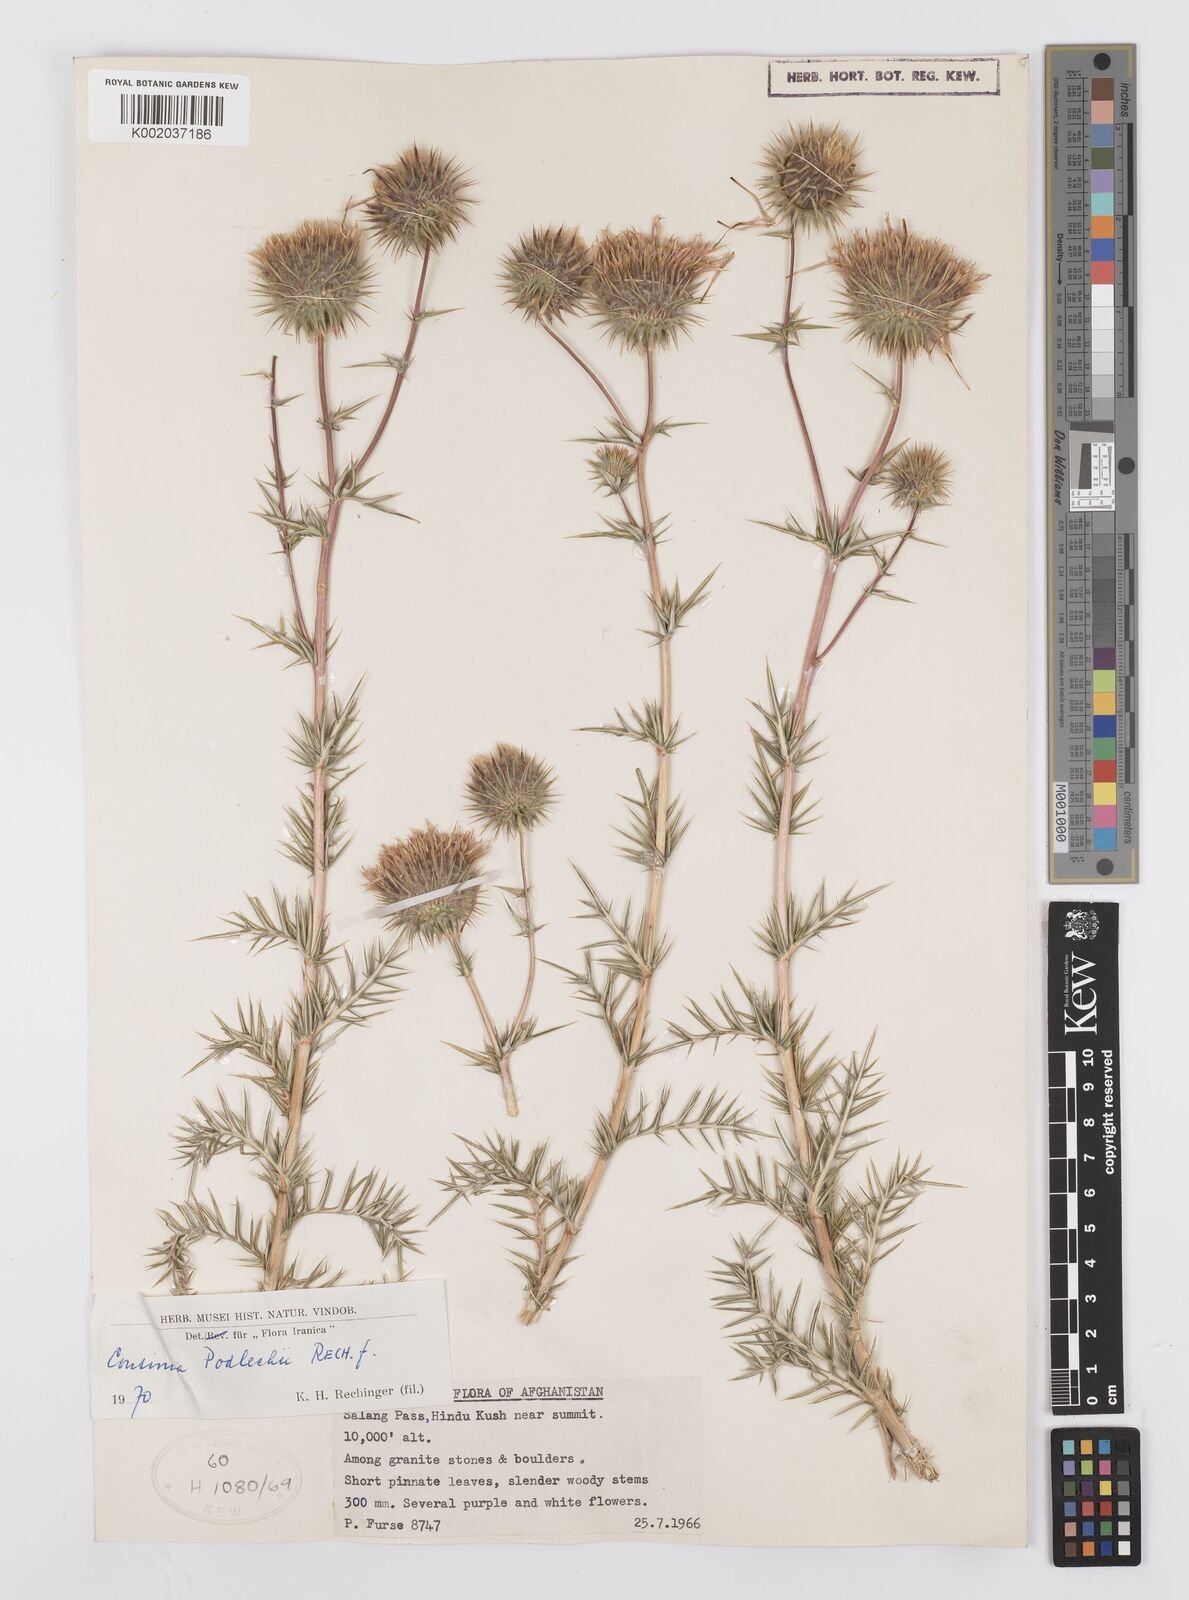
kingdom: Plantae
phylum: Tracheophyta
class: Magnoliopsida
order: Asterales
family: Asteraceae
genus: Cousinia
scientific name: Cousinia podlechii
